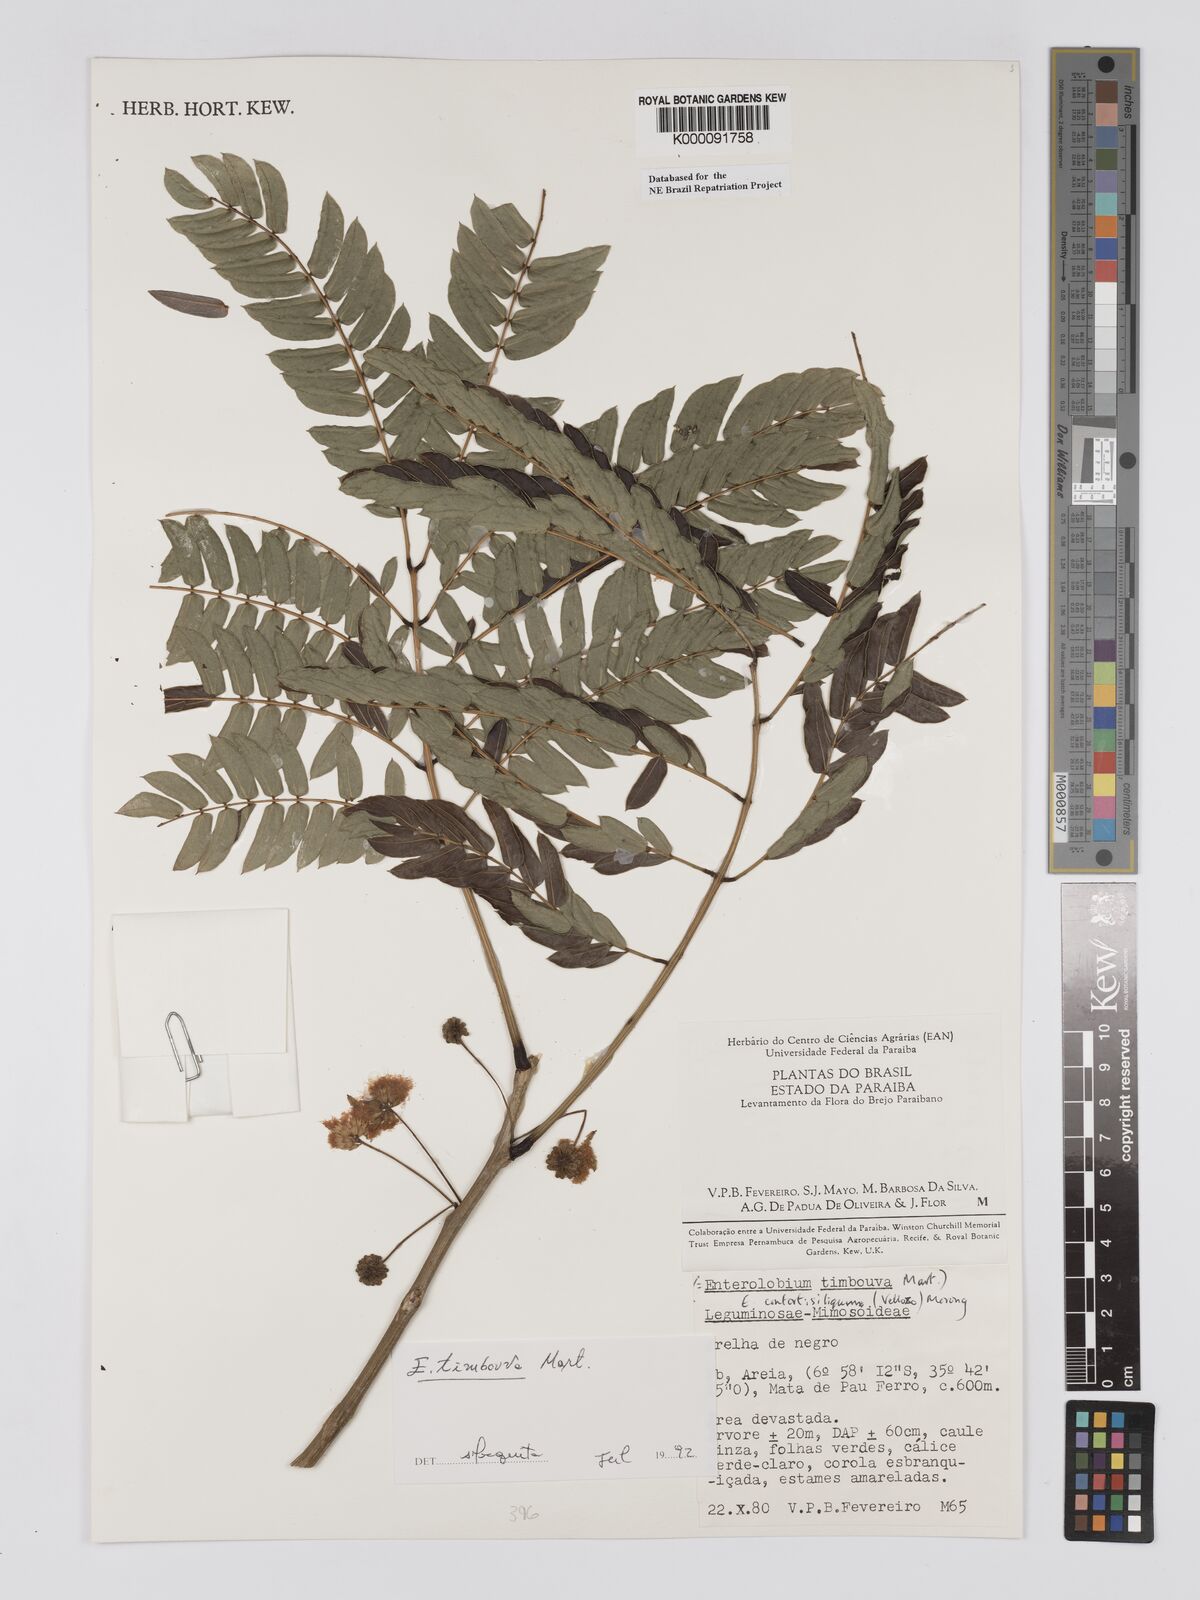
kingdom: Plantae
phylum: Tracheophyta
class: Magnoliopsida
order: Fabales
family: Fabaceae
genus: Enterolobium
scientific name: Enterolobium timbouva
